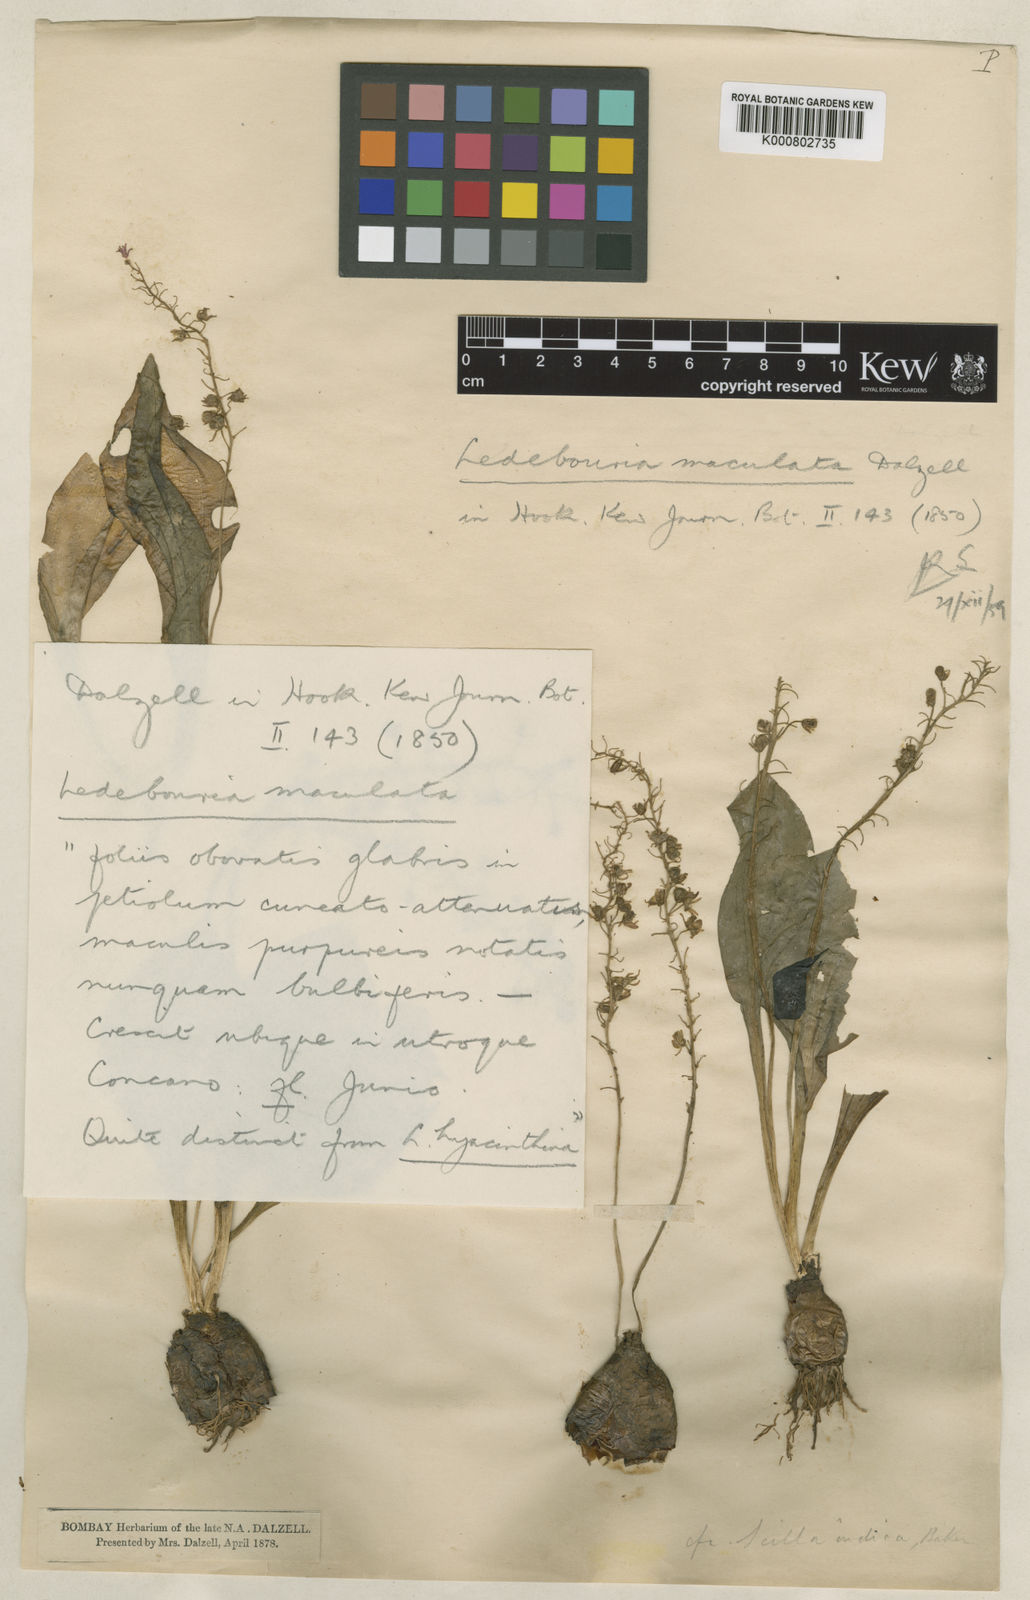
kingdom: Plantae
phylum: Tracheophyta
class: Liliopsida
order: Asparagales
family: Asparagaceae
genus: Ledebouria
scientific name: Ledebouria revoluta
